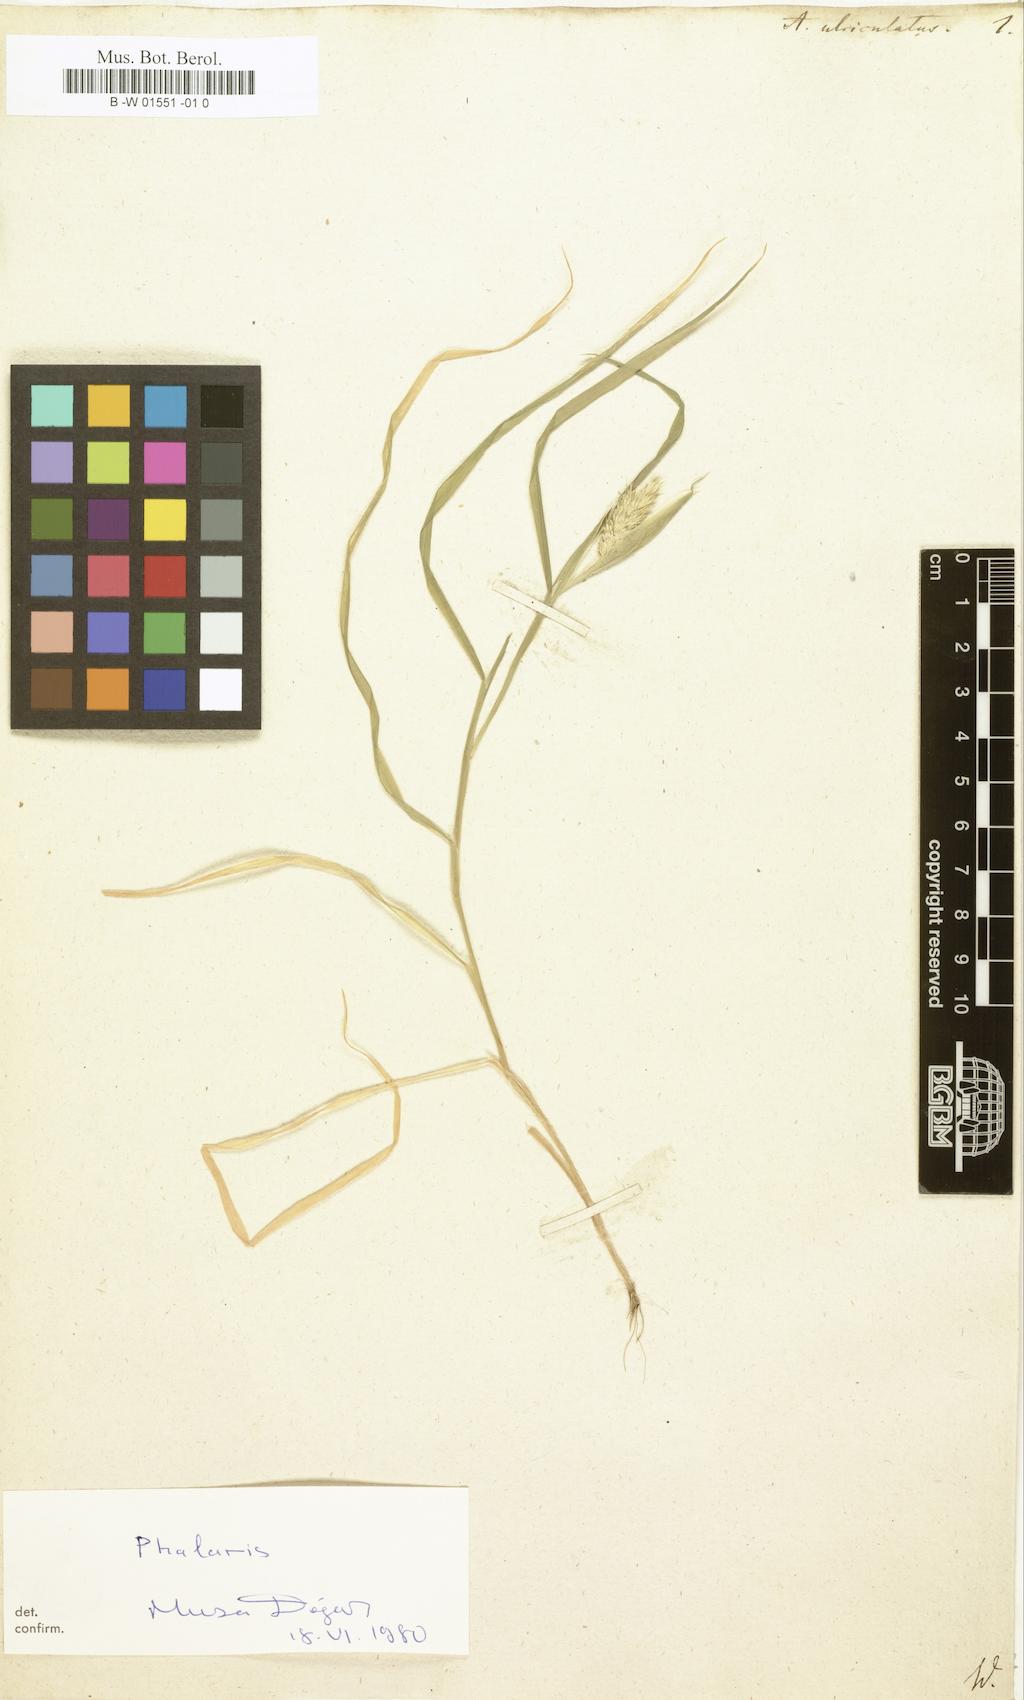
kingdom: Plantae
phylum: Tracheophyta
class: Liliopsida
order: Poales
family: Poaceae
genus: Alopecurus
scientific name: Alopecurus utriculatus
